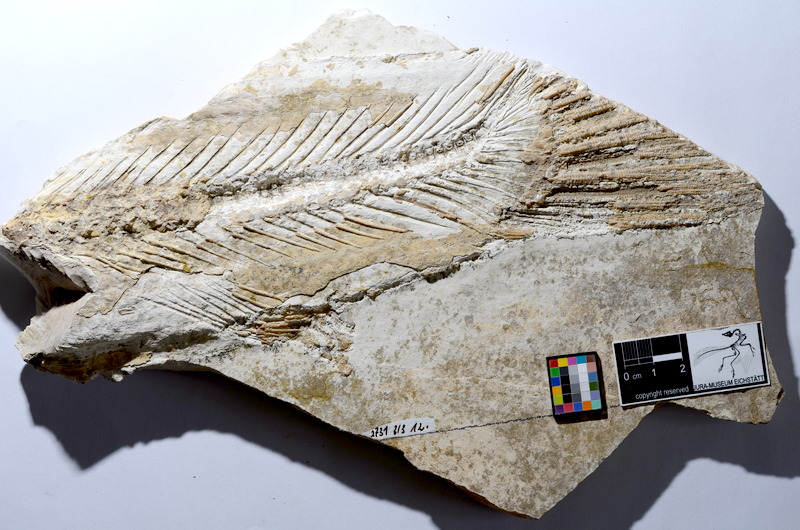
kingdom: Animalia
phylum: Chordata
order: Amiiformes
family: Amiidae
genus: Amiopsis
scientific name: Amiopsis lepidota
